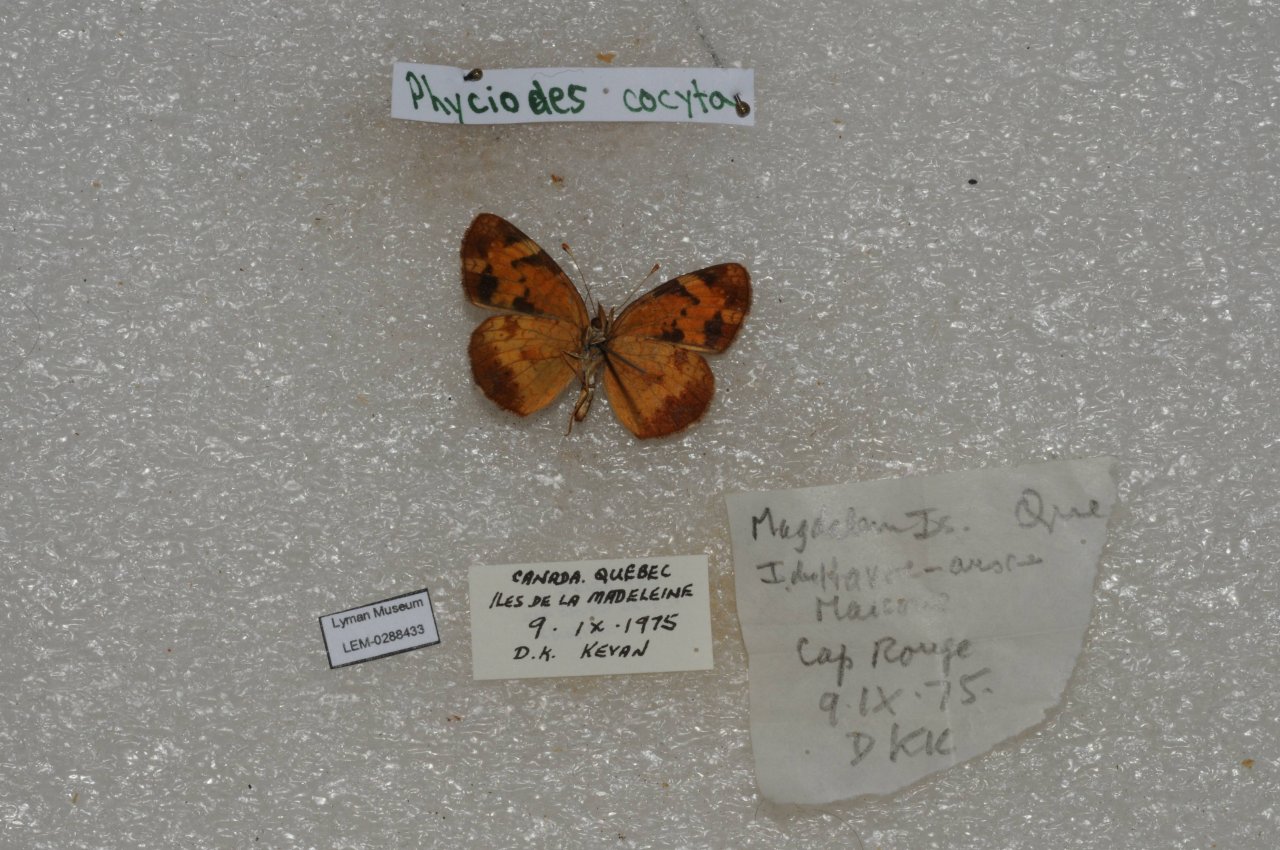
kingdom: Animalia
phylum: Arthropoda
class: Insecta
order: Lepidoptera
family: Nymphalidae
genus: Phyciodes
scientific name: Phyciodes tharos
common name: Northern Crescent
